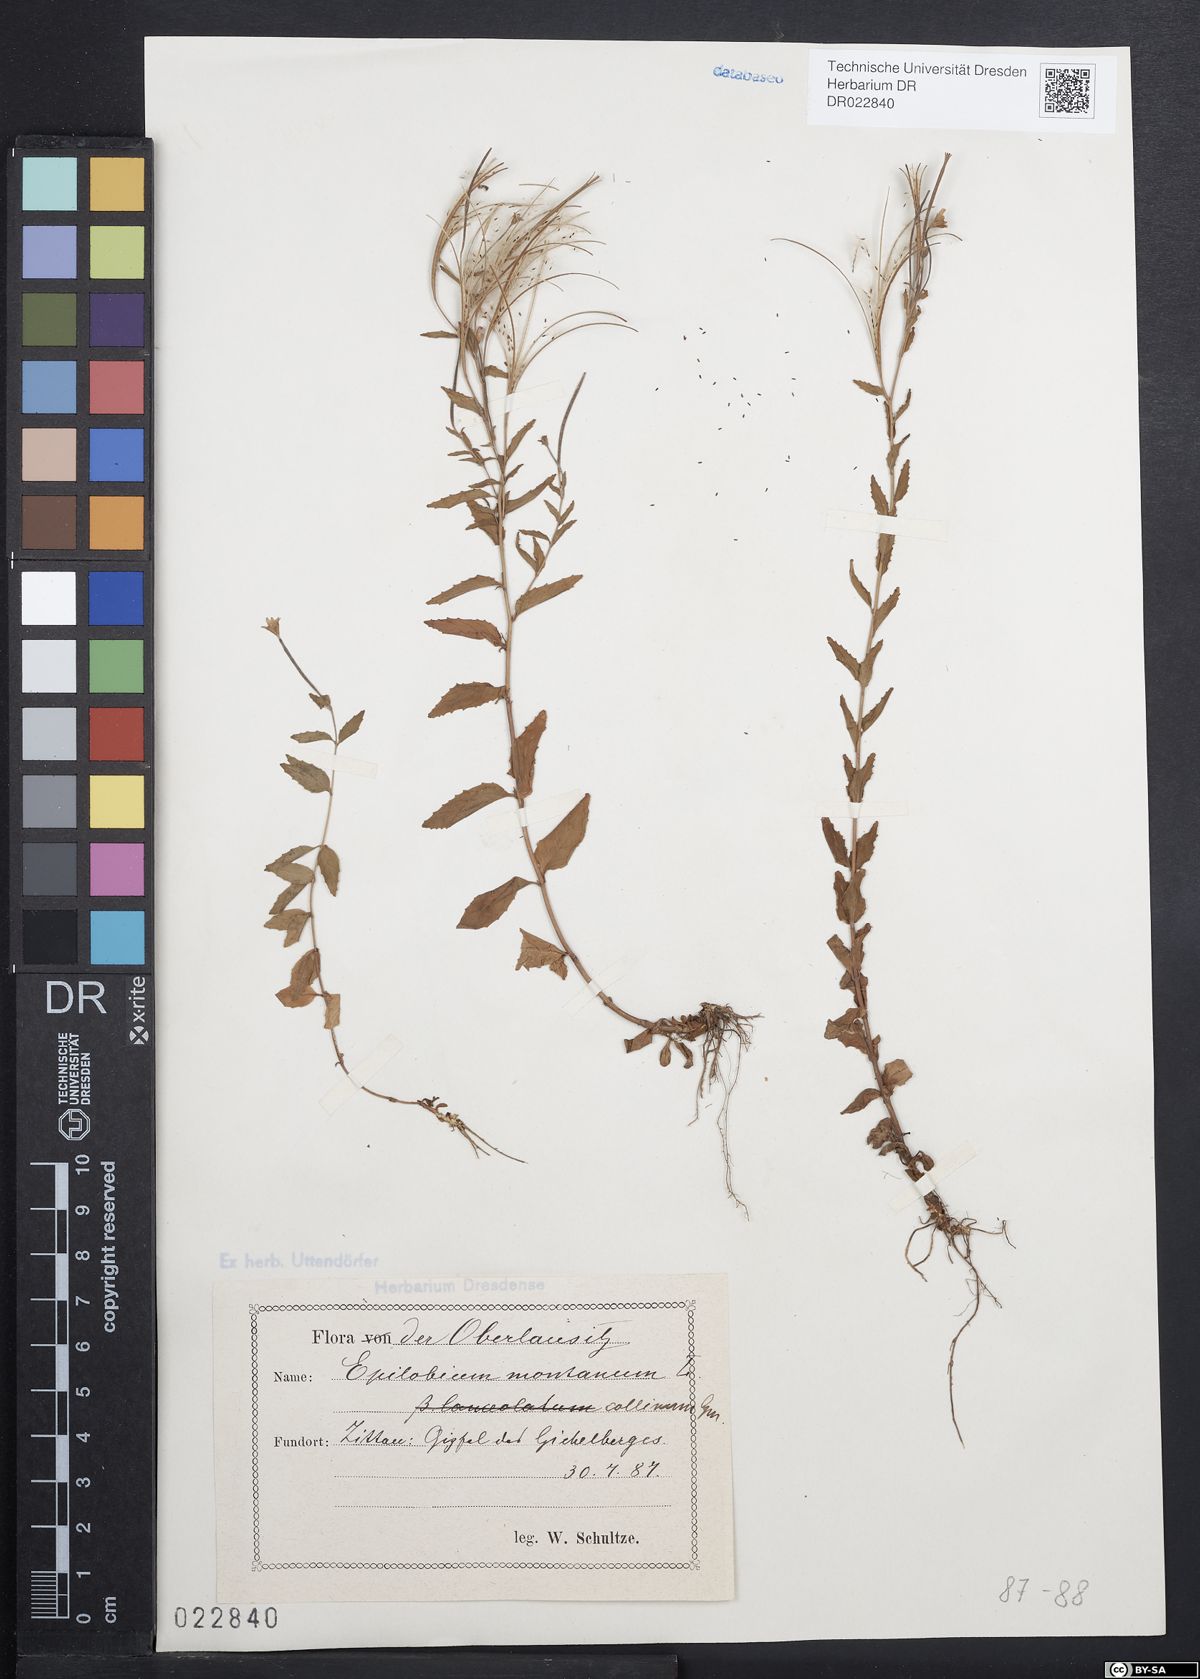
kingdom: Plantae
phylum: Tracheophyta
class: Magnoliopsida
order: Myrtales
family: Onagraceae
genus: Epilobium
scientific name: Epilobium collinum
